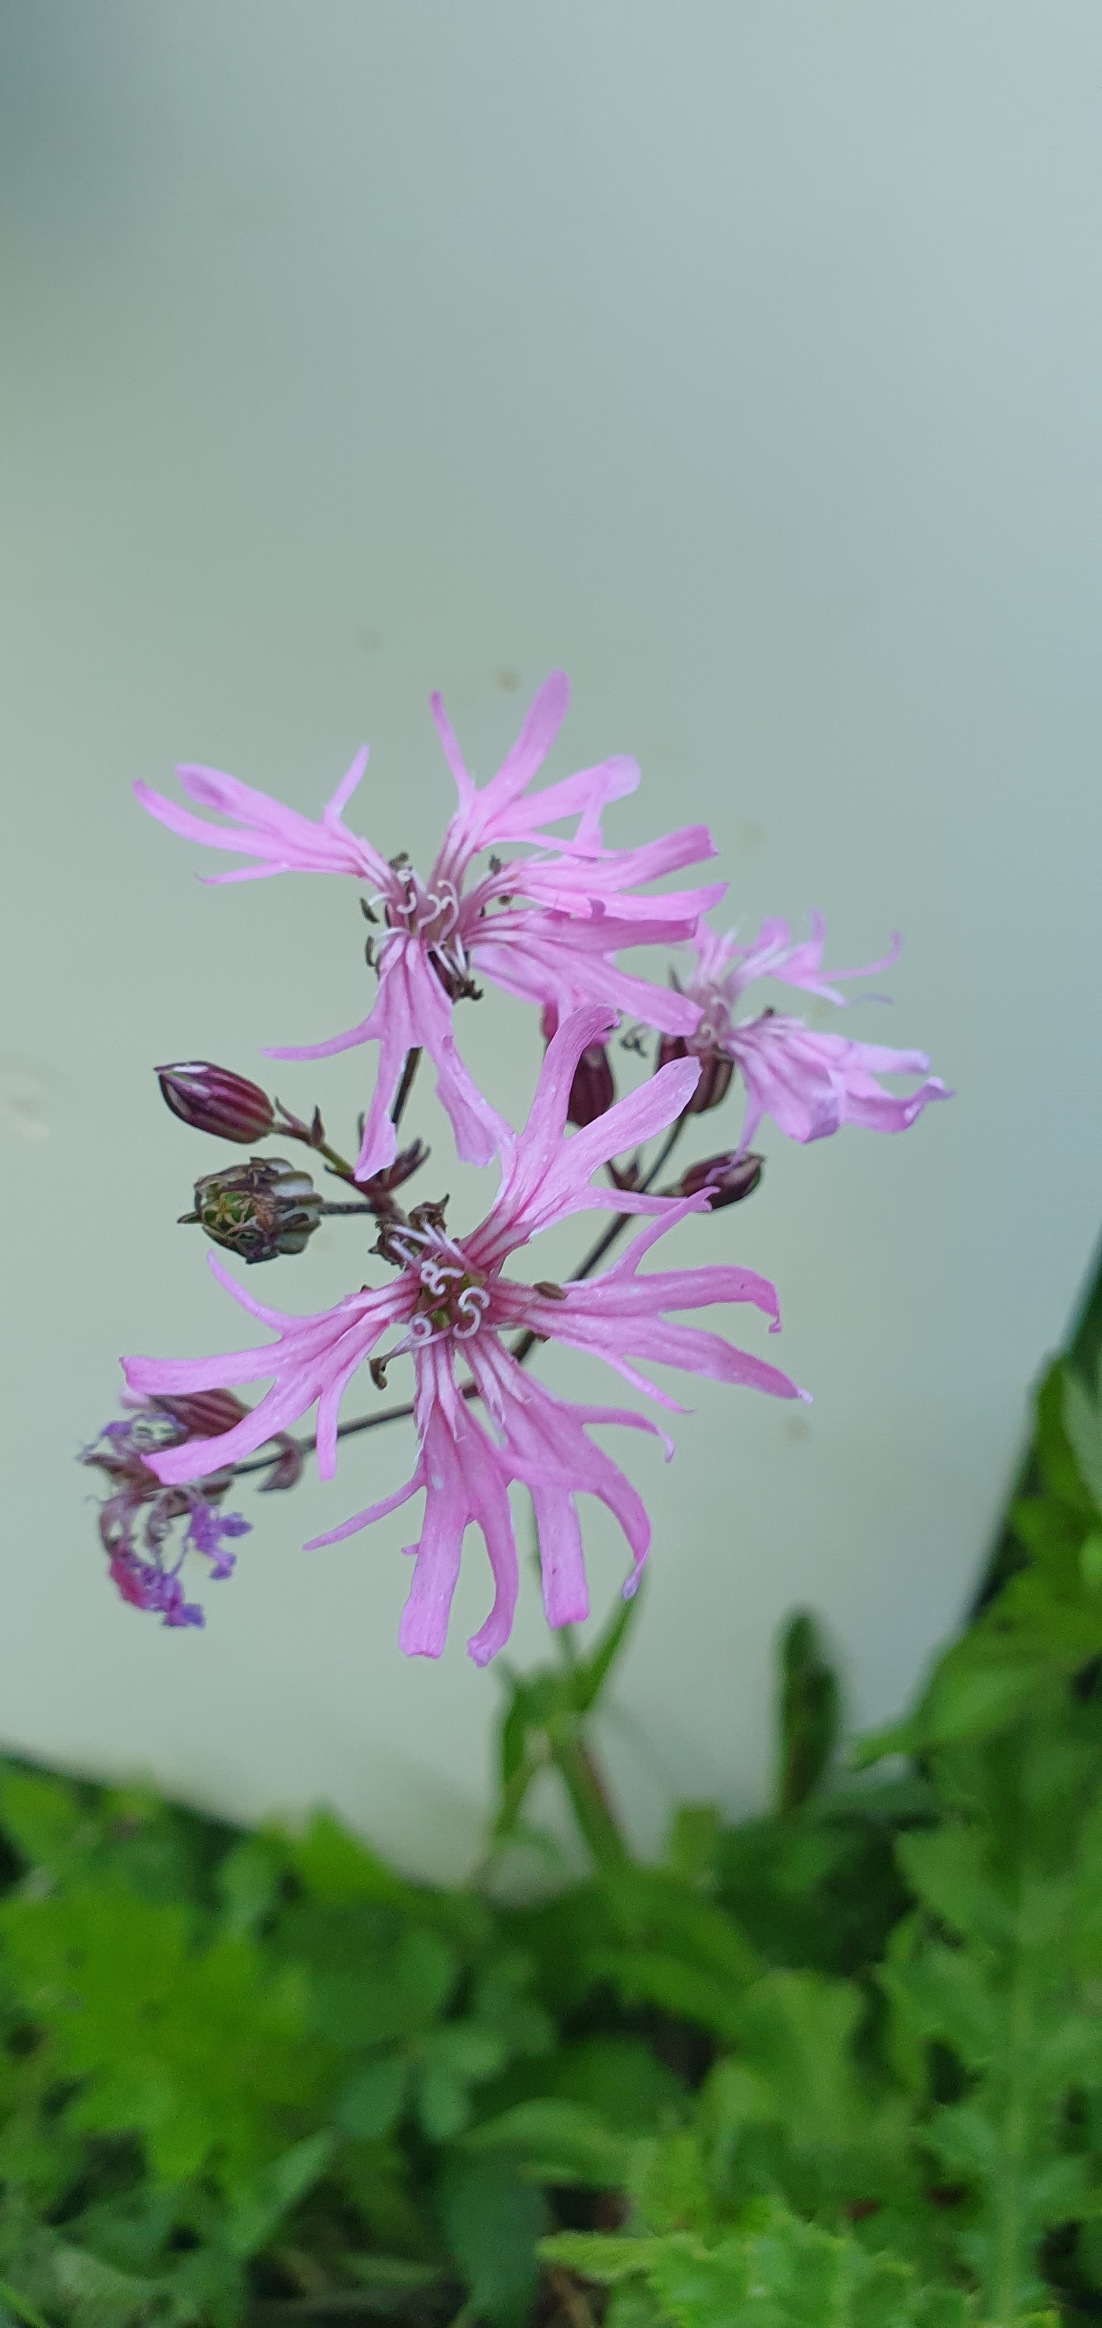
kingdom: Plantae
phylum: Tracheophyta
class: Magnoliopsida
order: Caryophyllales
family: Caryophyllaceae
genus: Silene
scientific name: Silene flos-cuculi
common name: Trævlekrone
